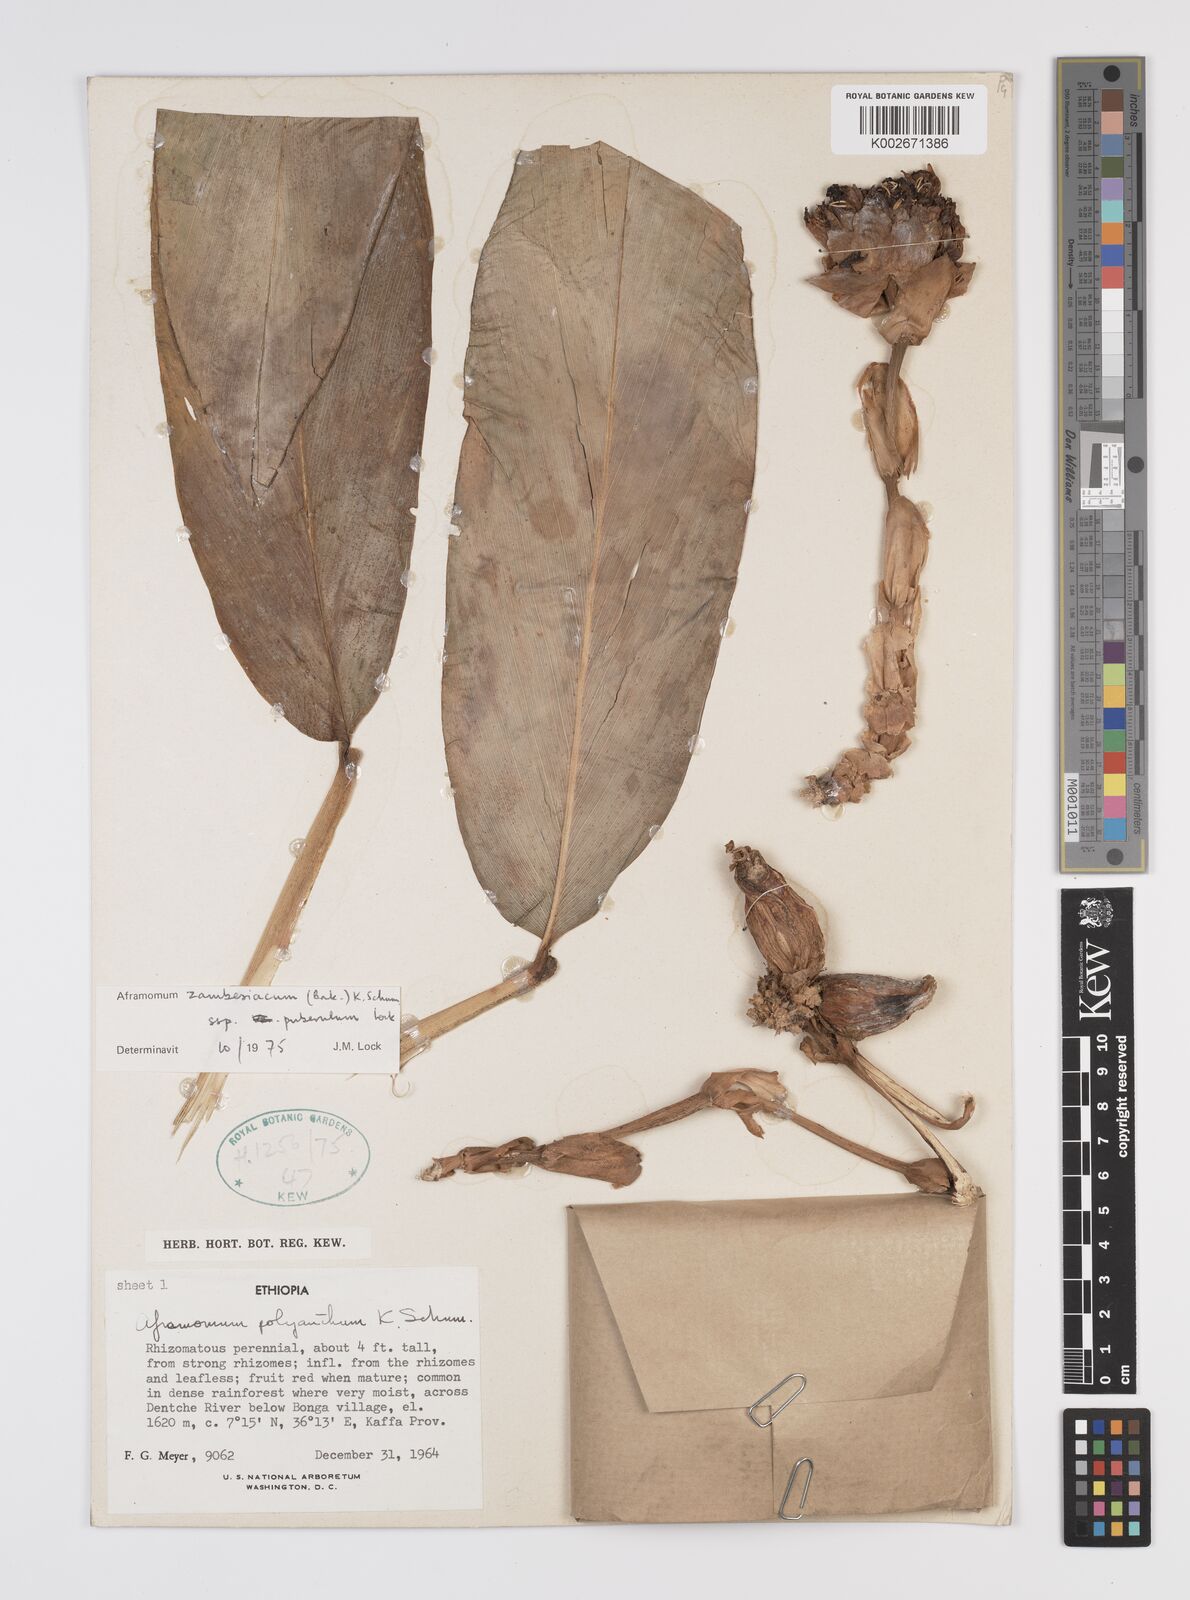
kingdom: Plantae
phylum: Tracheophyta
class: Liliopsida
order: Zingiberales
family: Zingiberaceae
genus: Aframomum
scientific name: Aframomum zambesiacum
